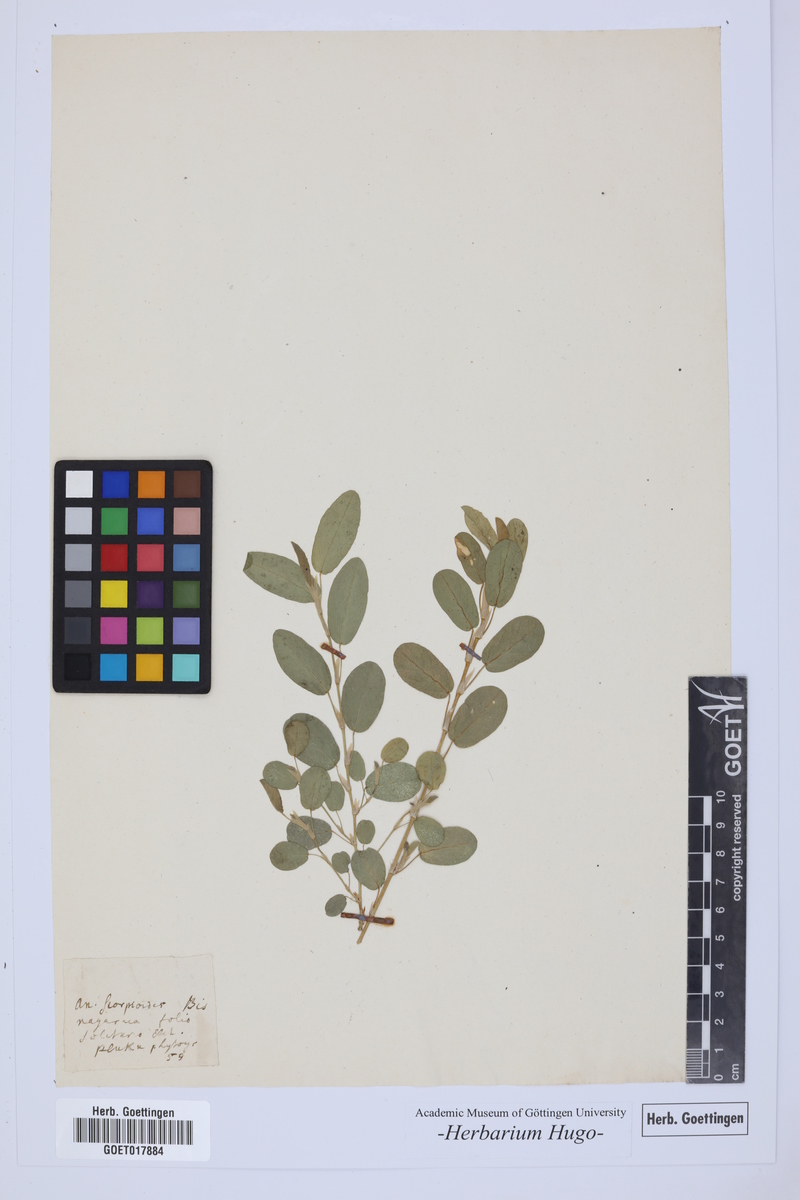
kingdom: Plantae
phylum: Tracheophyta
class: Magnoliopsida
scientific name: Magnoliopsida
